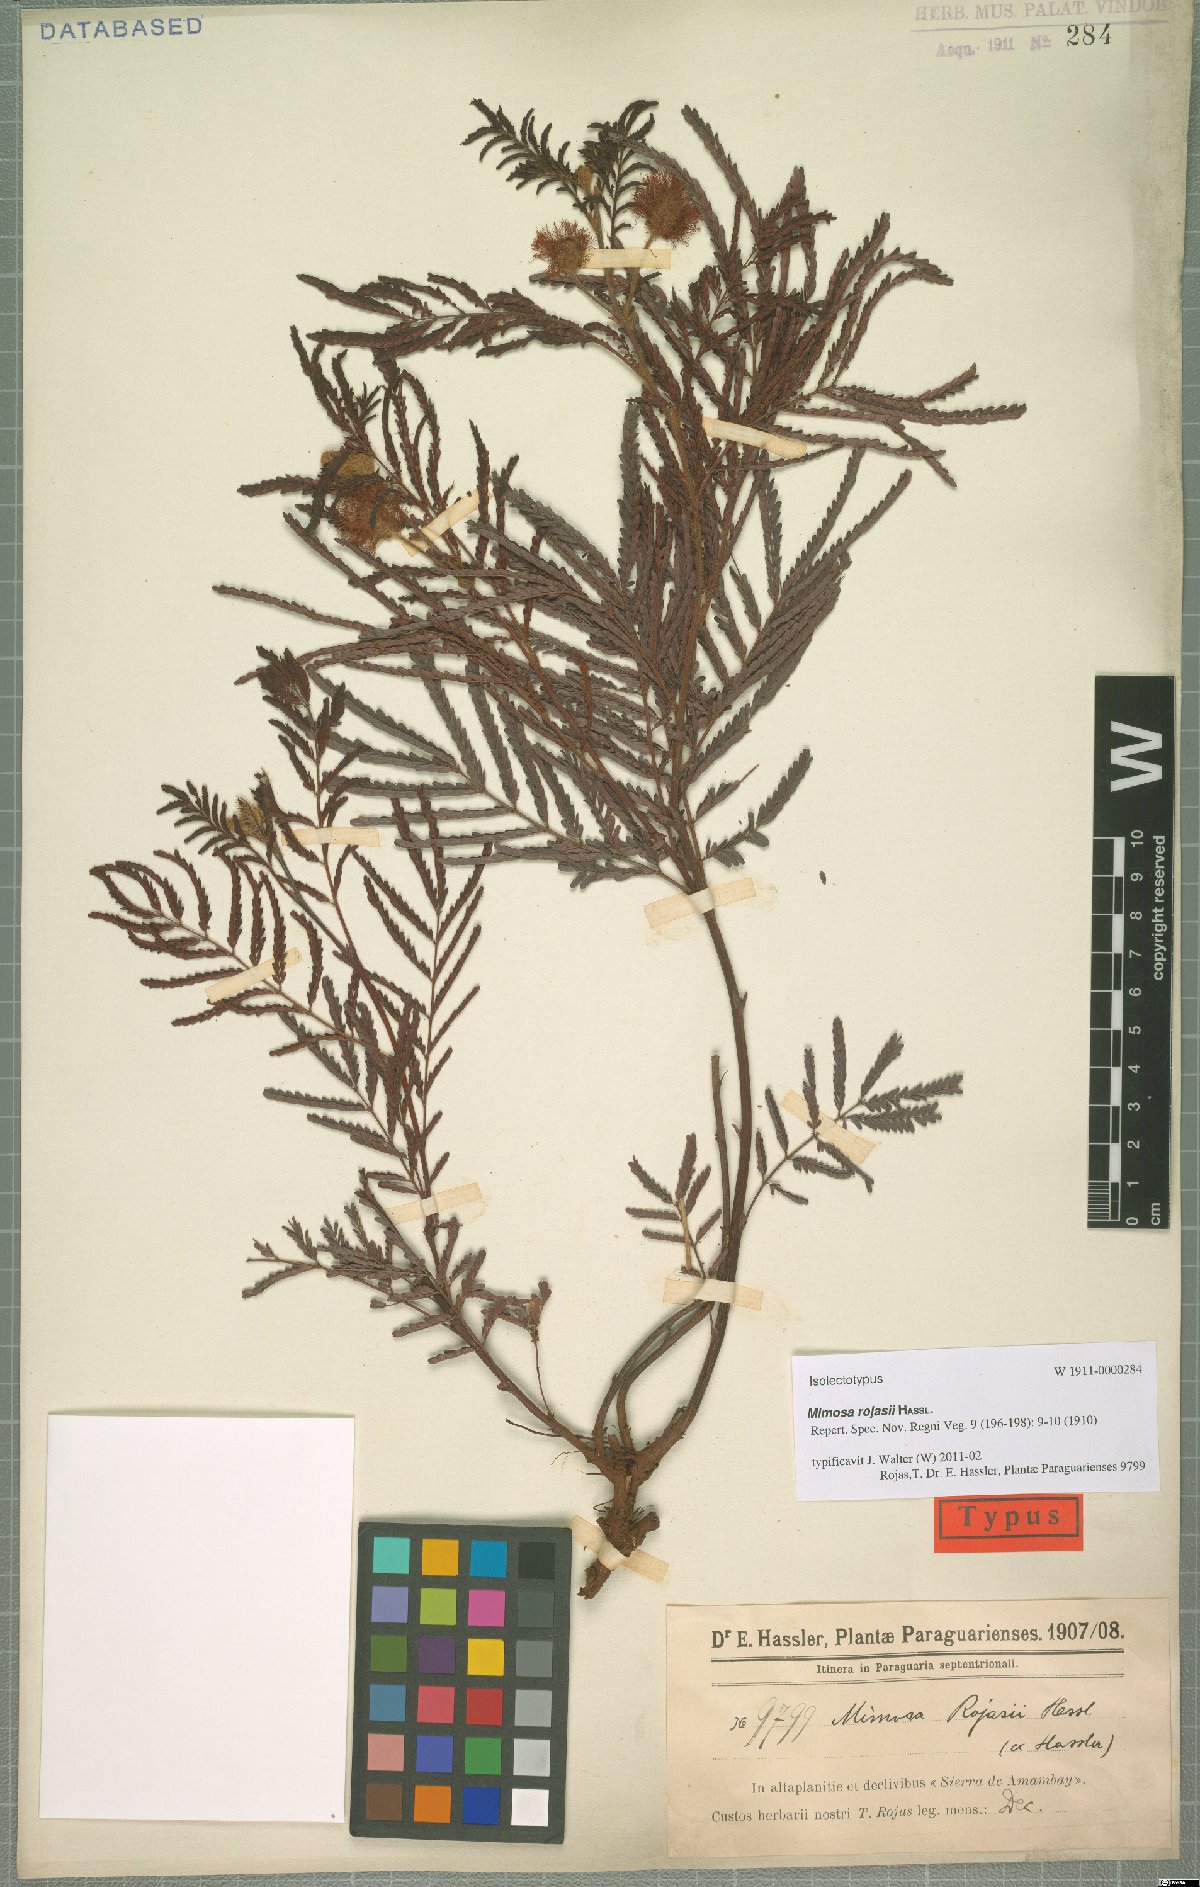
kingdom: Plantae
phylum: Tracheophyta
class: Magnoliopsida
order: Fabales
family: Fabaceae
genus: Mimosa
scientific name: Mimosa rojasii
